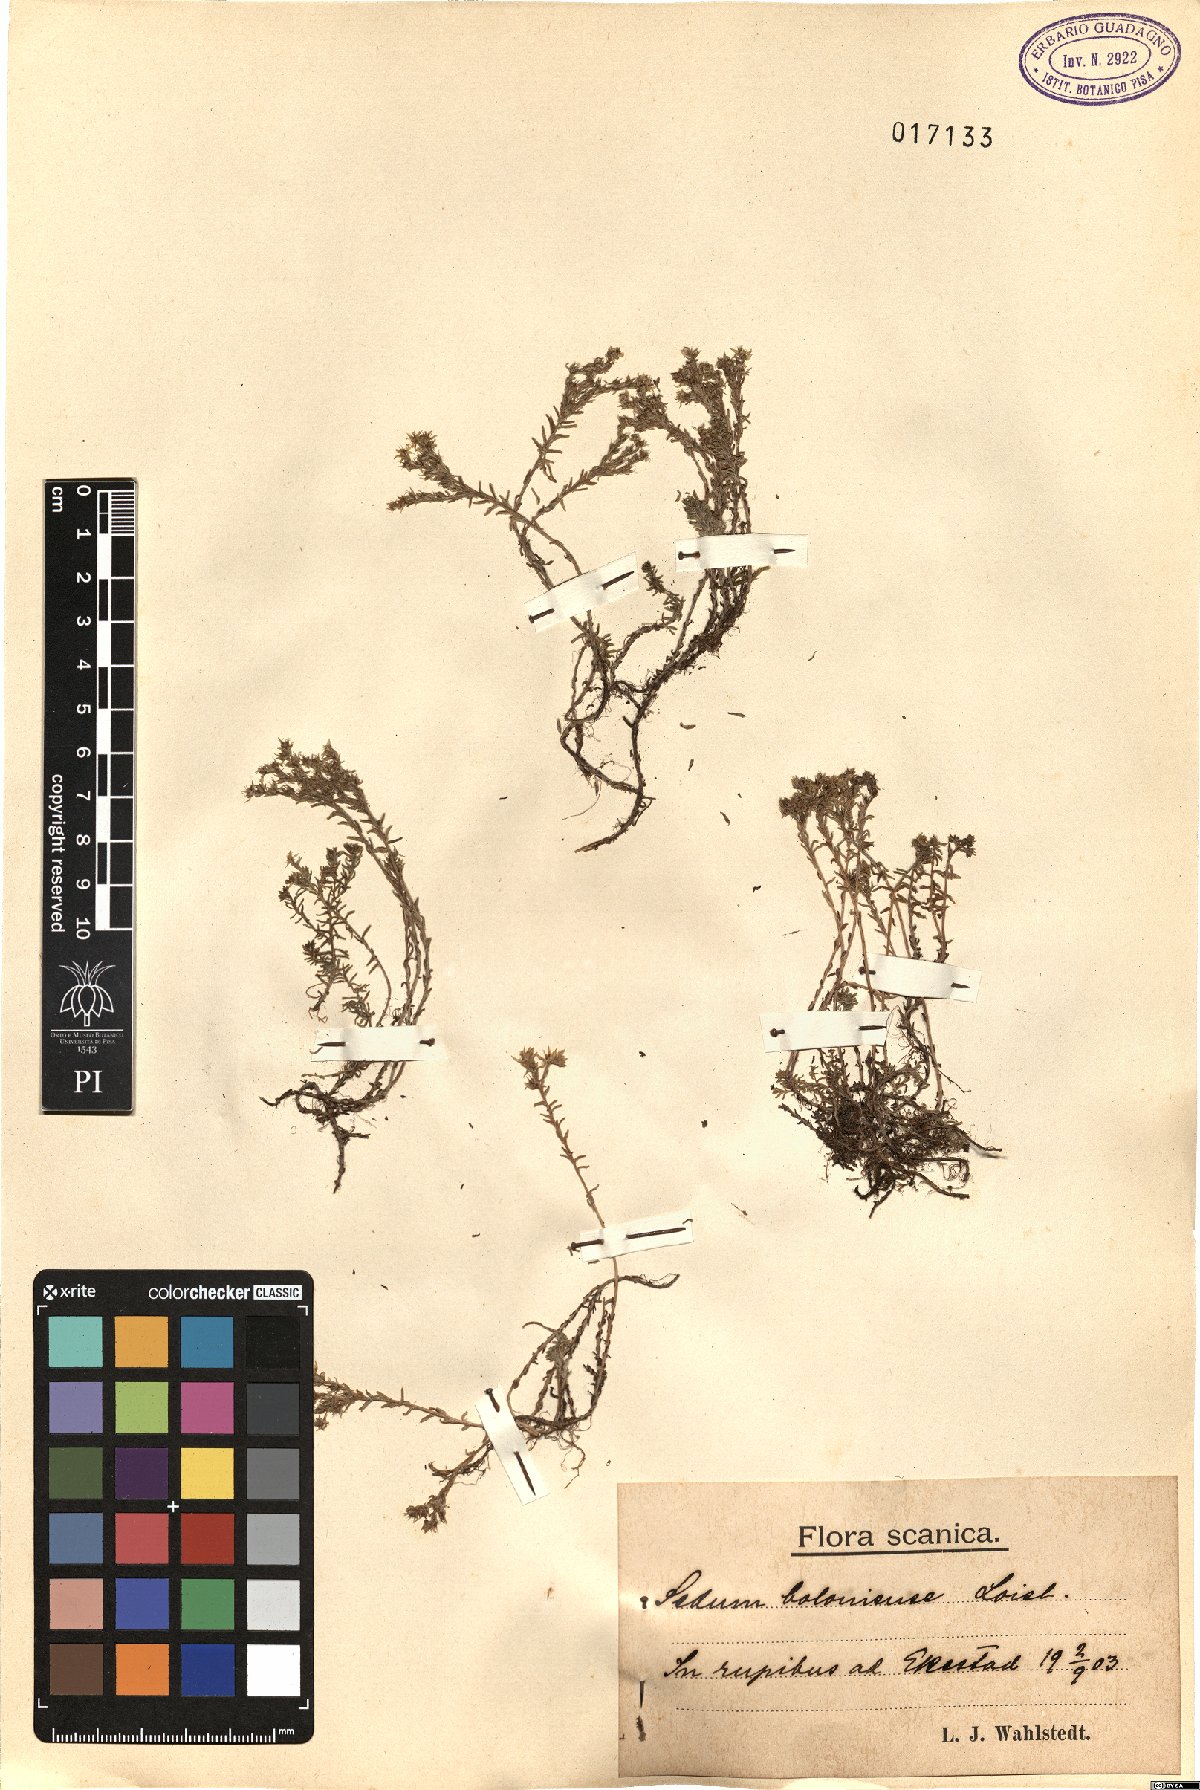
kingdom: Plantae
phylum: Tracheophyta
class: Magnoliopsida
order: Saxifragales
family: Crassulaceae
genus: Sedum
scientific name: Sedum sexangulare
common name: Tasteless stonecrop
